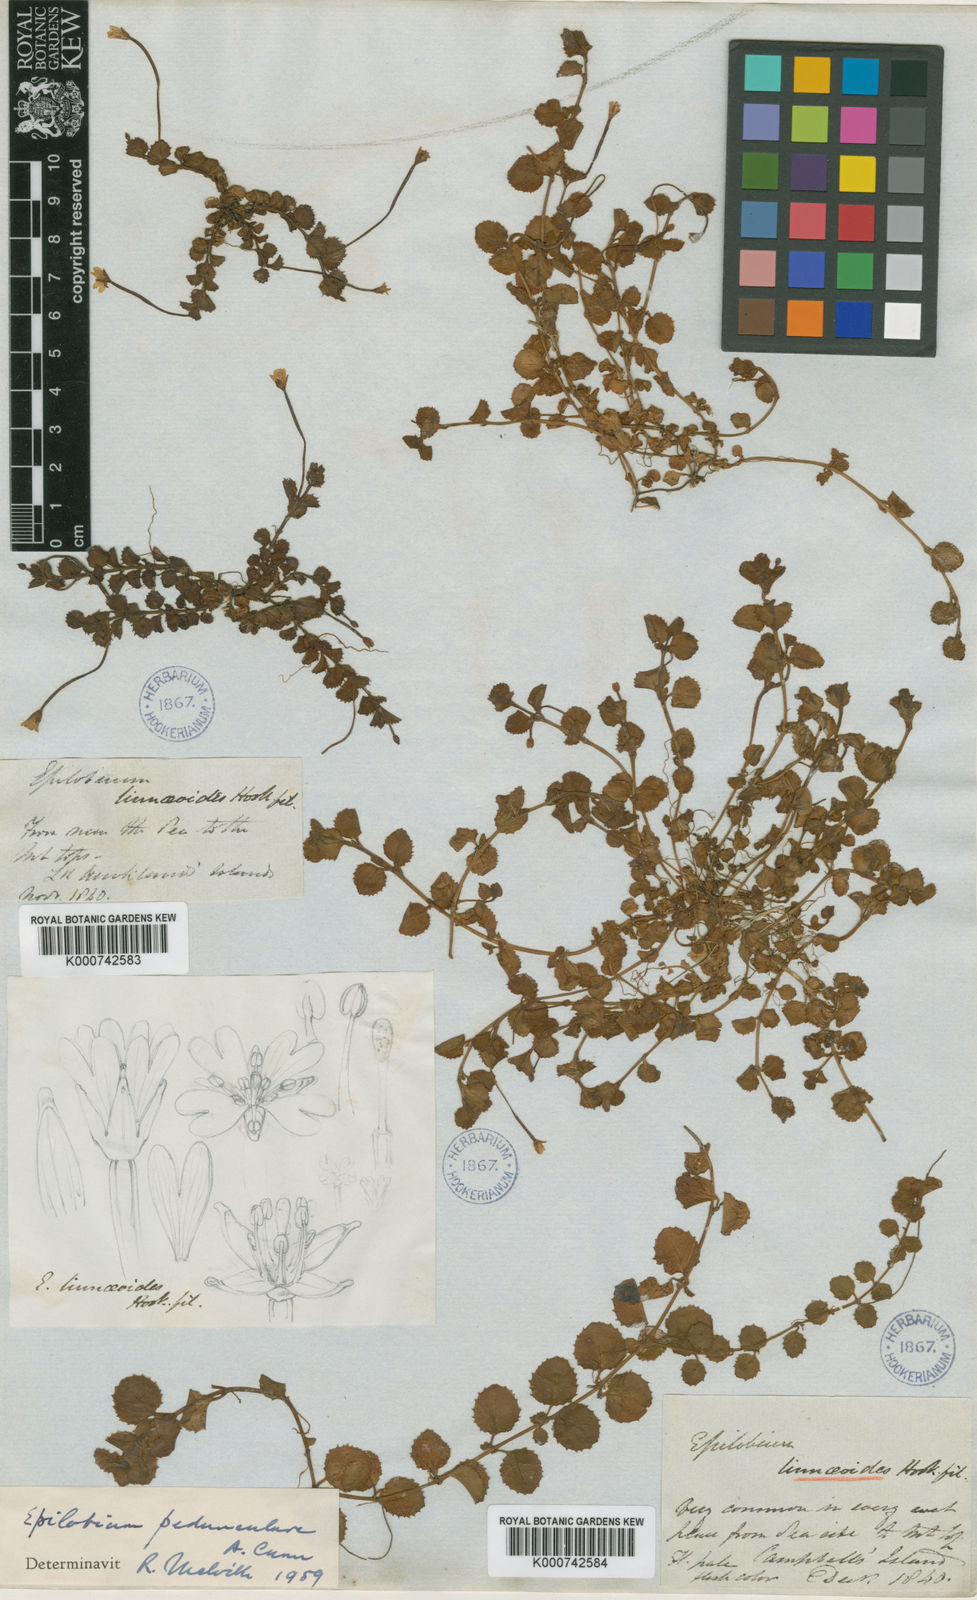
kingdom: Plantae
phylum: Tracheophyta
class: Magnoliopsida
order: Myrtales
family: Onagraceae
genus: Epilobium
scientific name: Epilobium pedunculare
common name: Rockery willowherb
